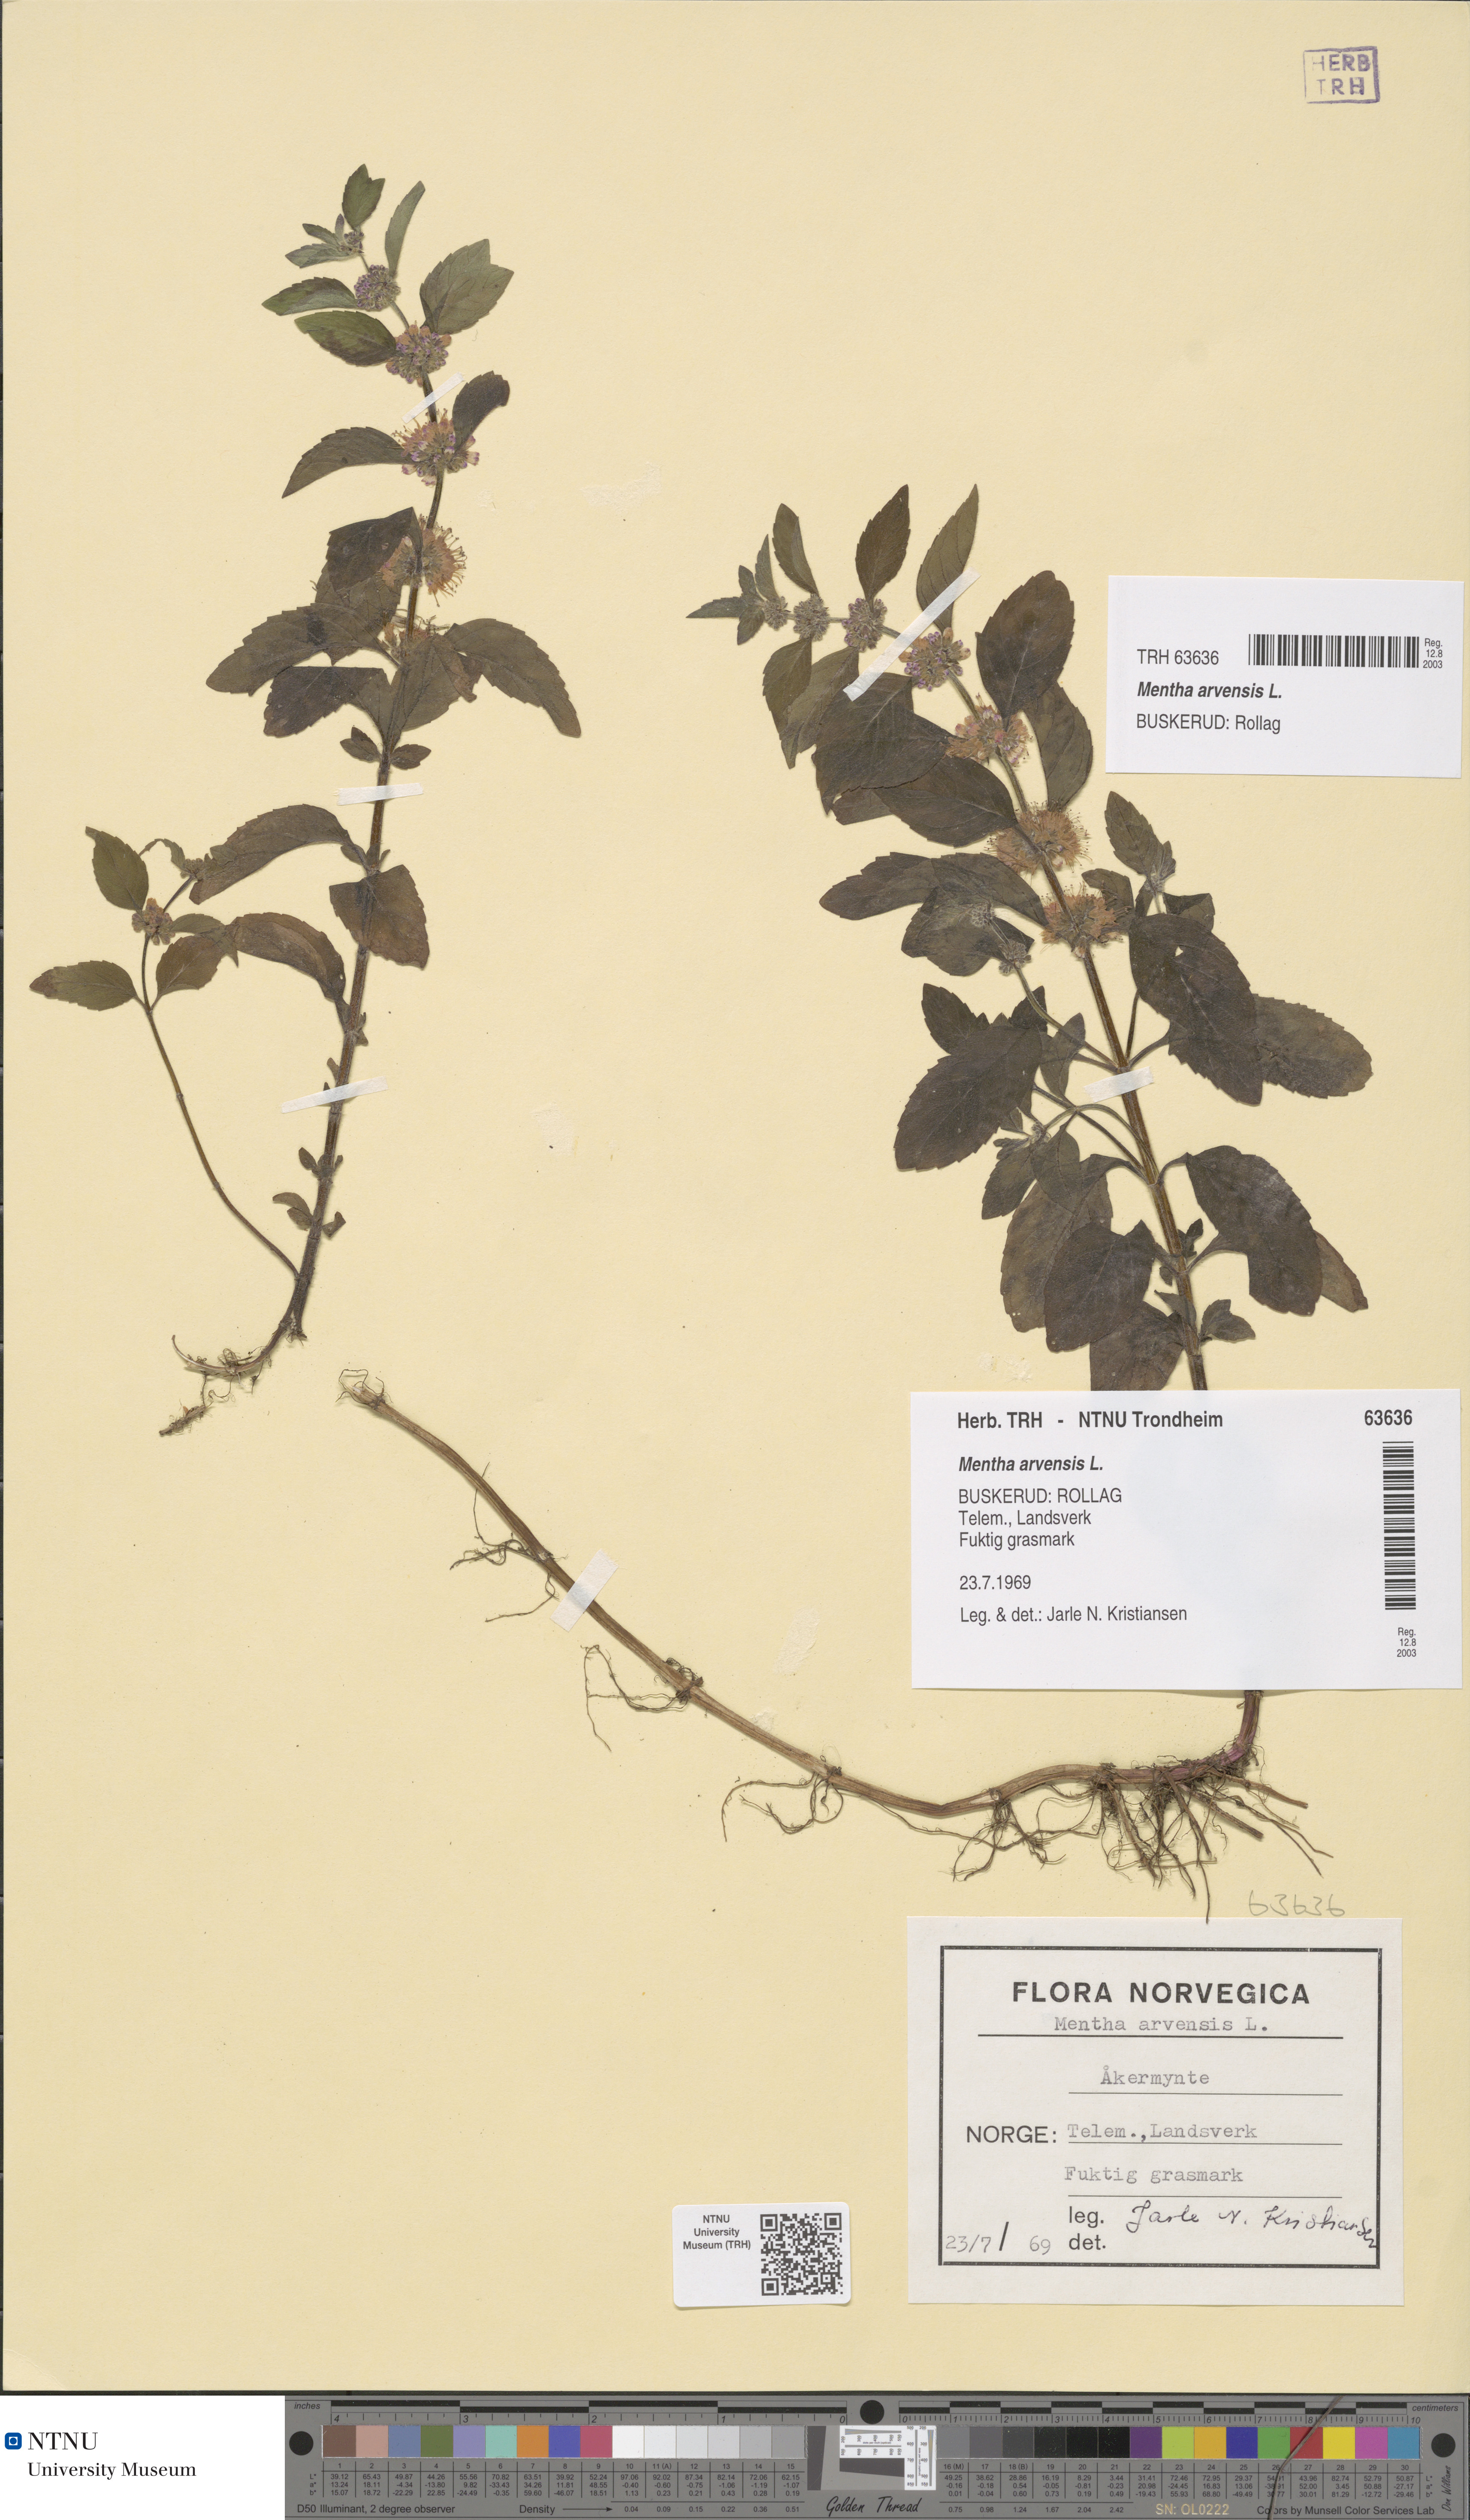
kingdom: Plantae
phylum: Tracheophyta
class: Magnoliopsida
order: Lamiales
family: Lamiaceae
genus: Mentha
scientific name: Mentha arvensis
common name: Corn mint
